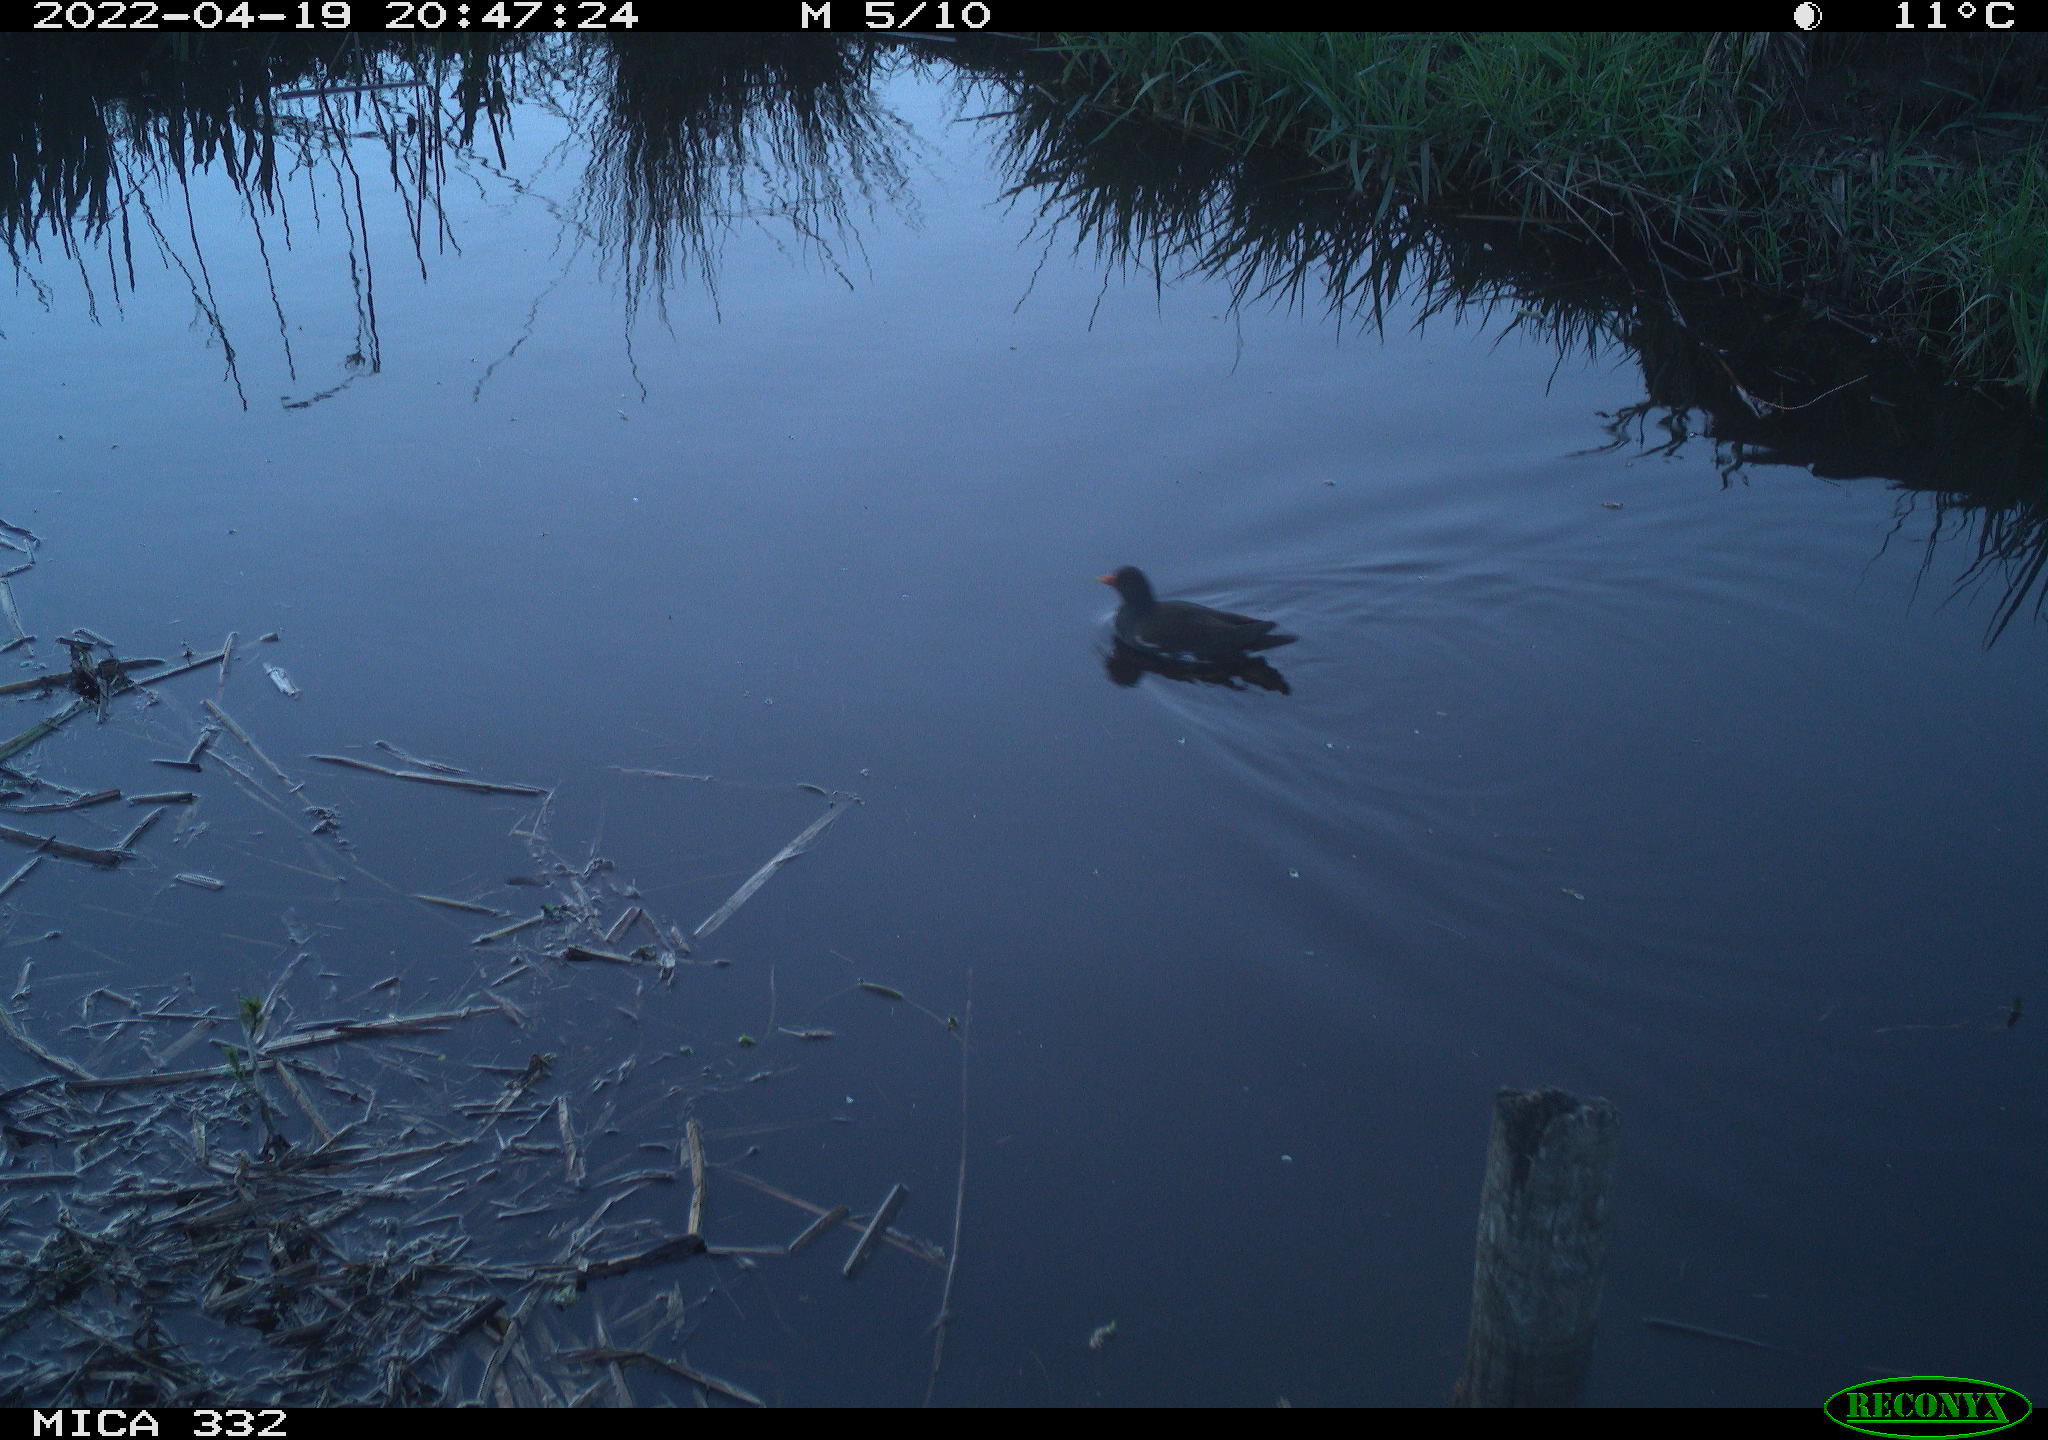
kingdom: Animalia
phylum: Chordata
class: Aves
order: Gruiformes
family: Rallidae
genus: Gallinula
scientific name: Gallinula chloropus
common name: Common moorhen
